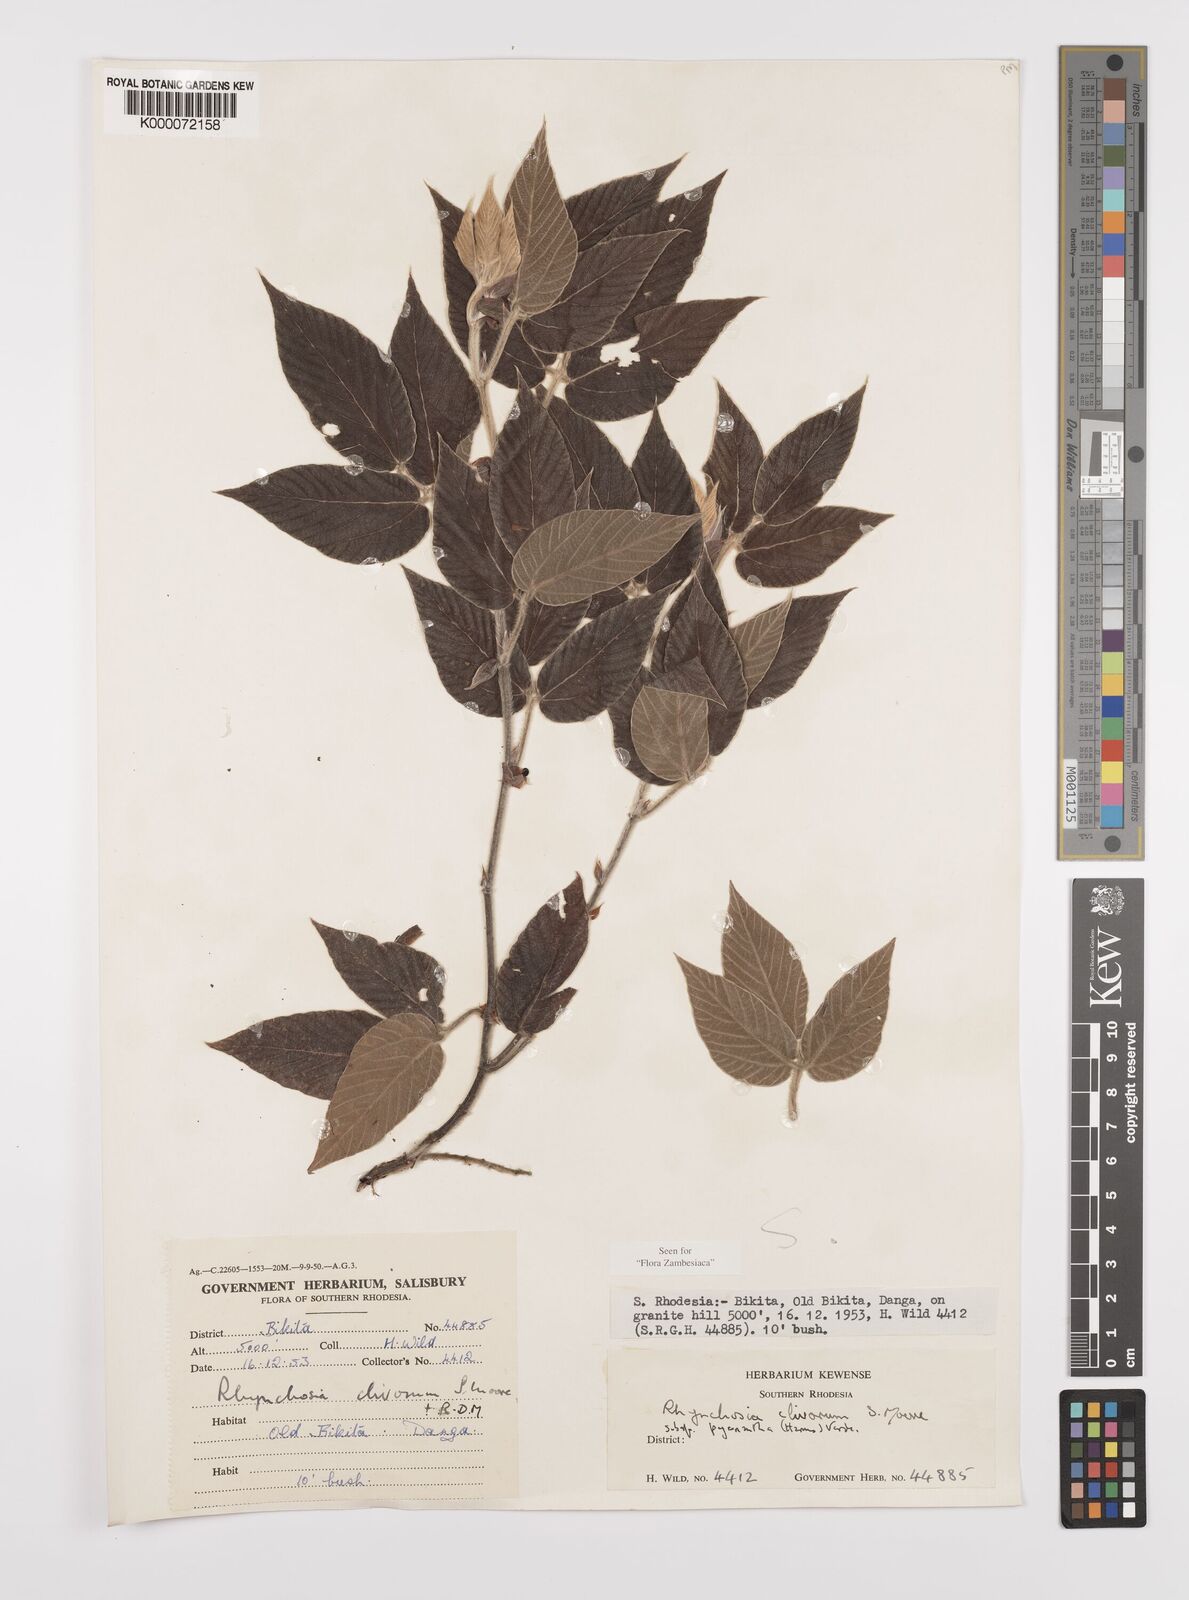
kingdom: Plantae
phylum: Tracheophyta
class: Magnoliopsida
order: Fabales
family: Fabaceae
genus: Rhynchosia
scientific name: Rhynchosia clivorum
